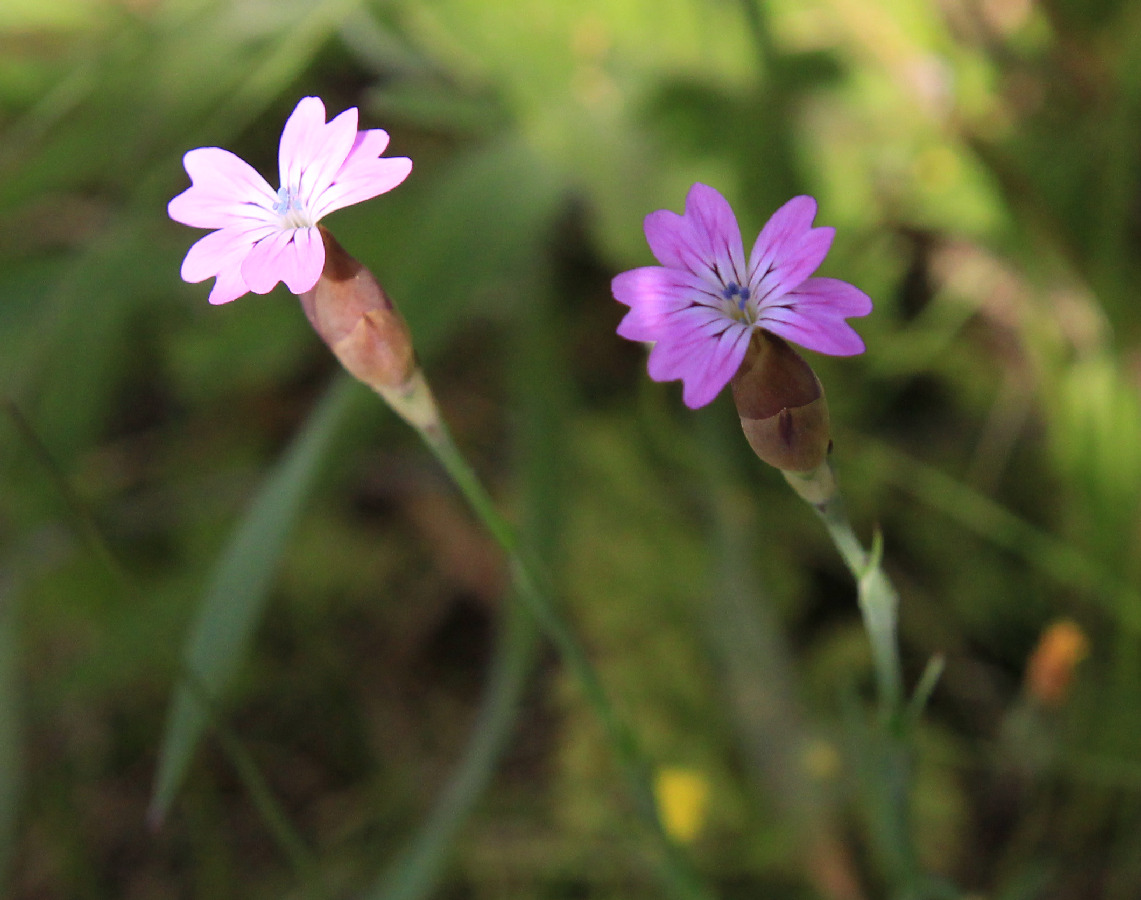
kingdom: Plantae
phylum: Tracheophyta
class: Magnoliopsida
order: Caryophyllales
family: Caryophyllaceae
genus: Petrorhagia
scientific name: Petrorhagia dubia
